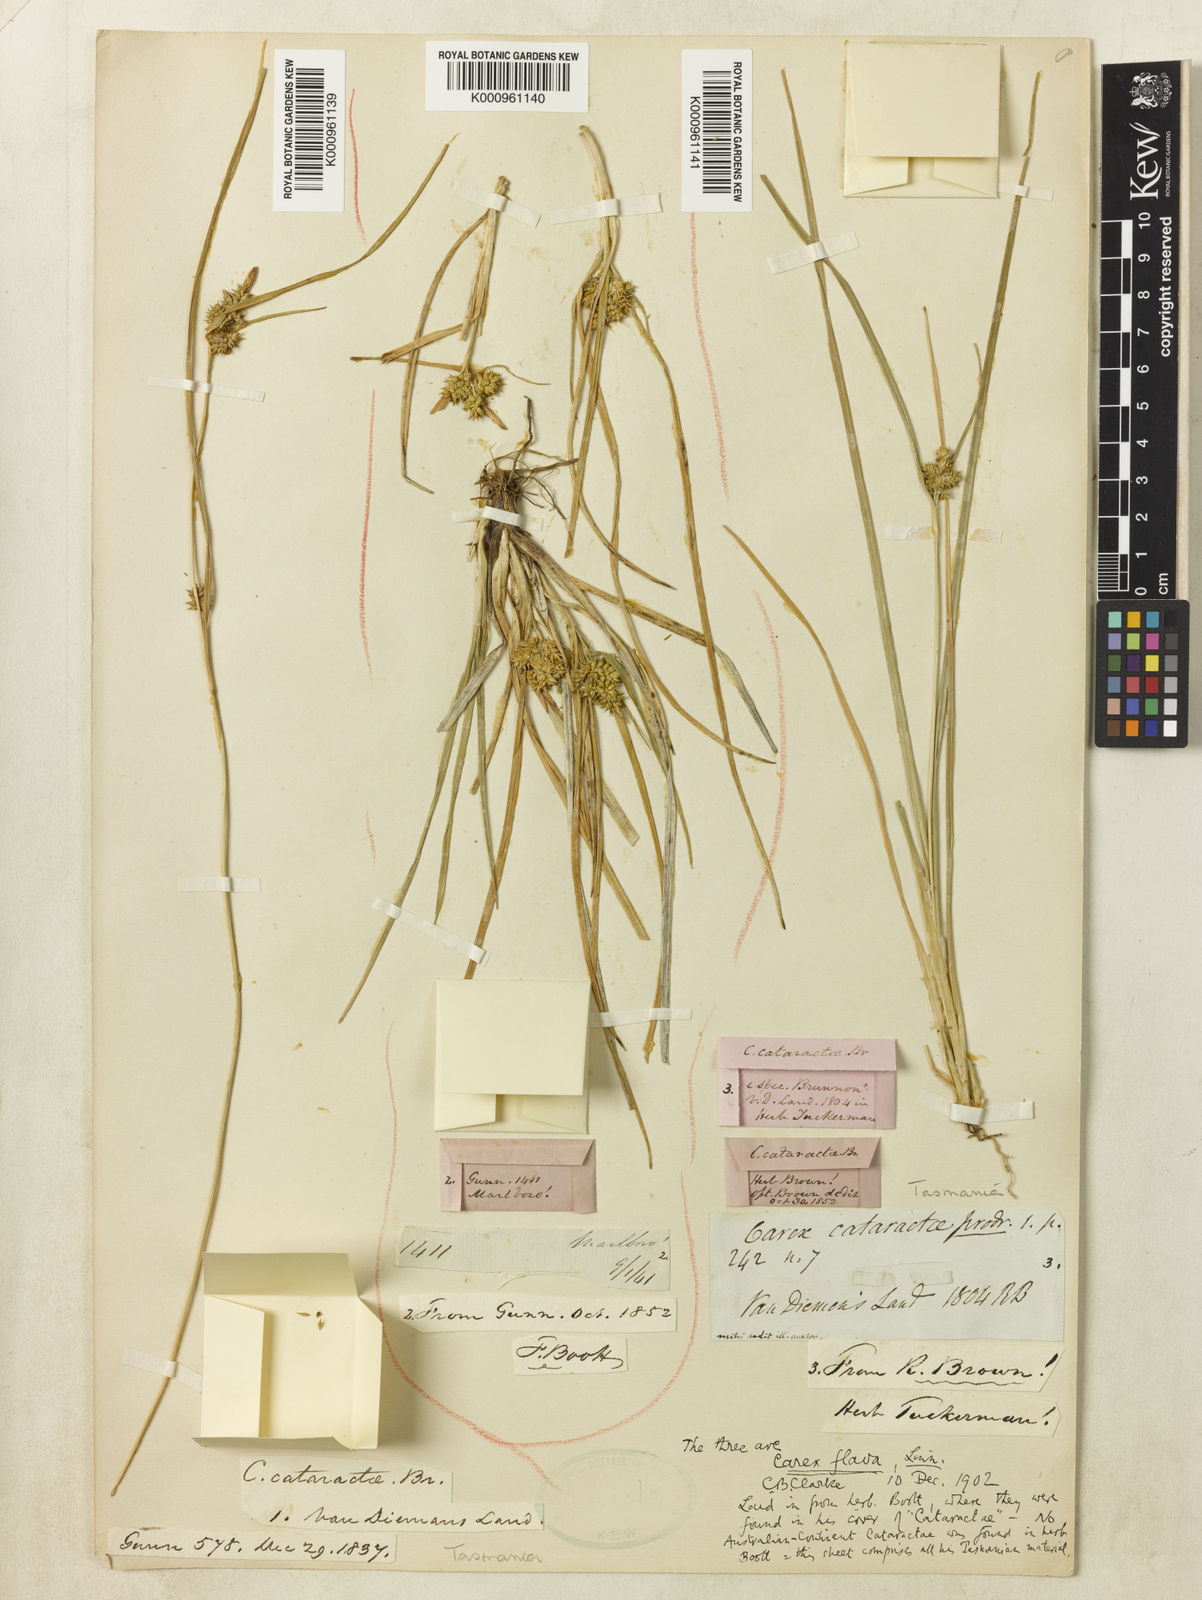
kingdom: Plantae
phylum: Tracheophyta
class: Liliopsida
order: Poales
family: Cyperaceae
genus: Carex
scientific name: Carex cataractae
